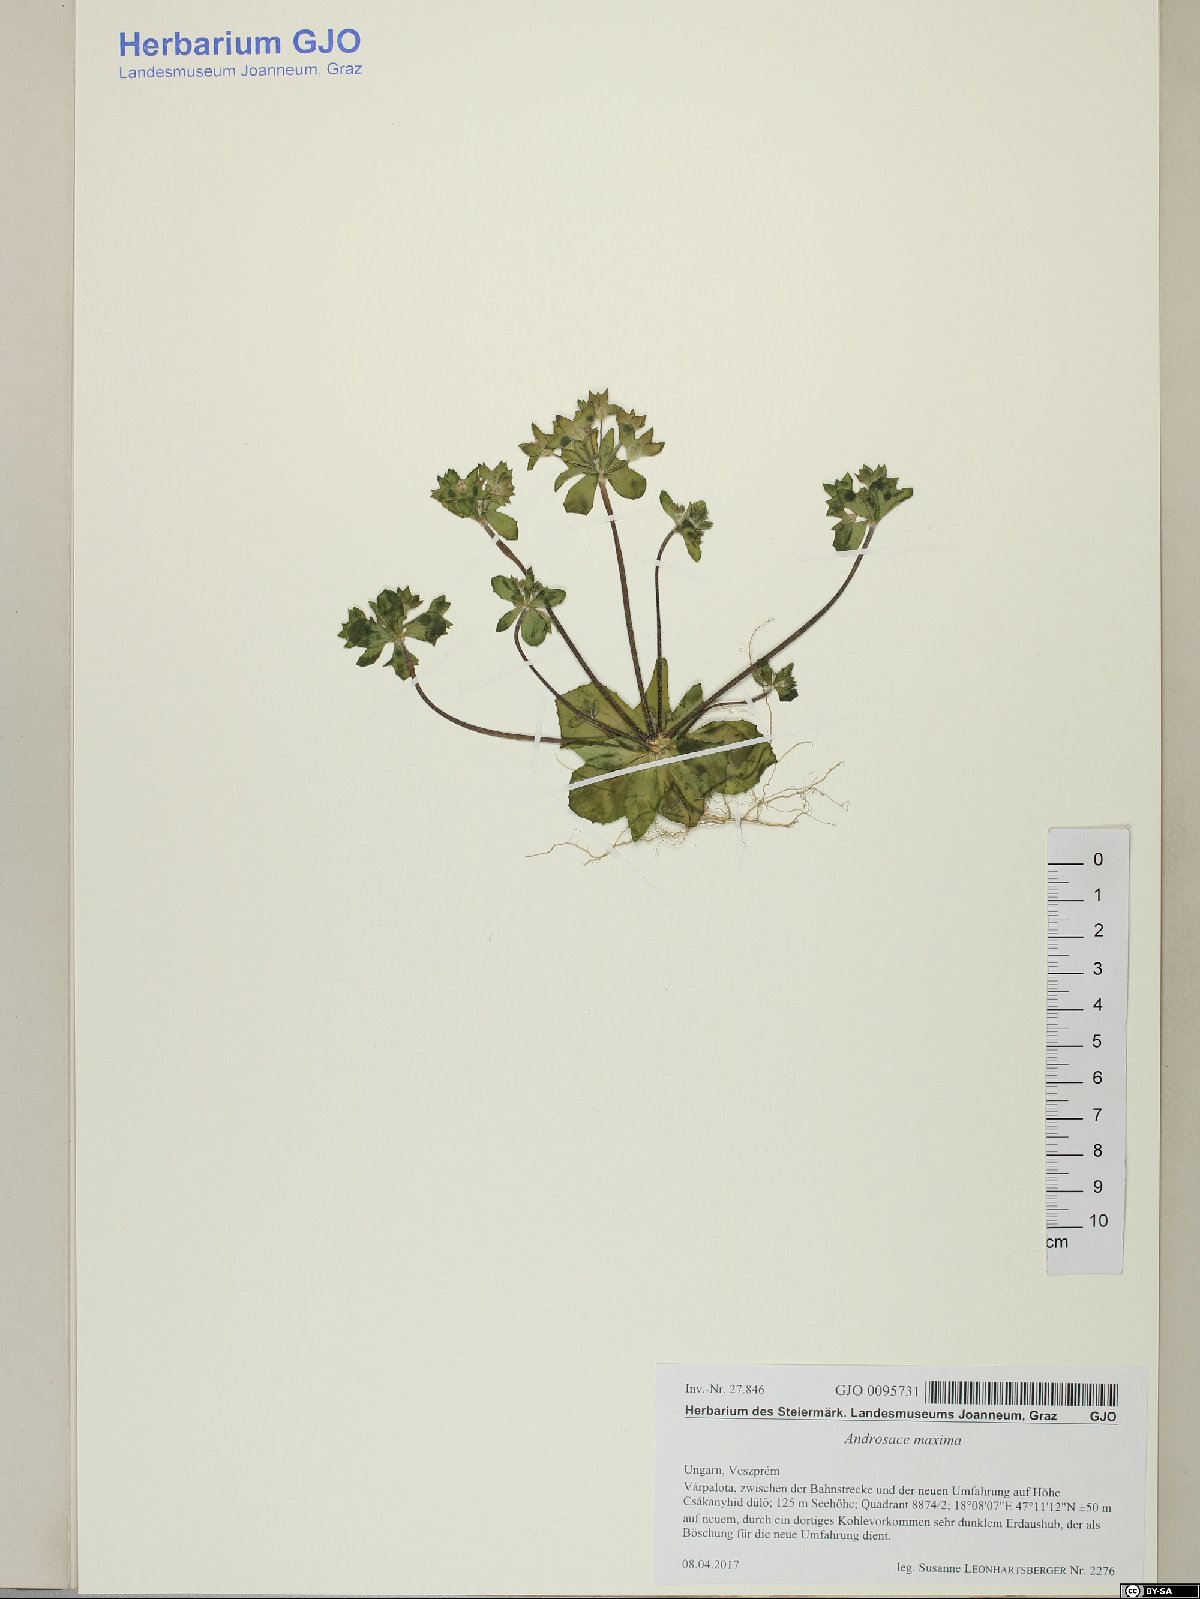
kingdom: Plantae
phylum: Tracheophyta
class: Magnoliopsida
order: Ericales
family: Primulaceae
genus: Androsace
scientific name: Androsace maxima
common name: Annual androsace
